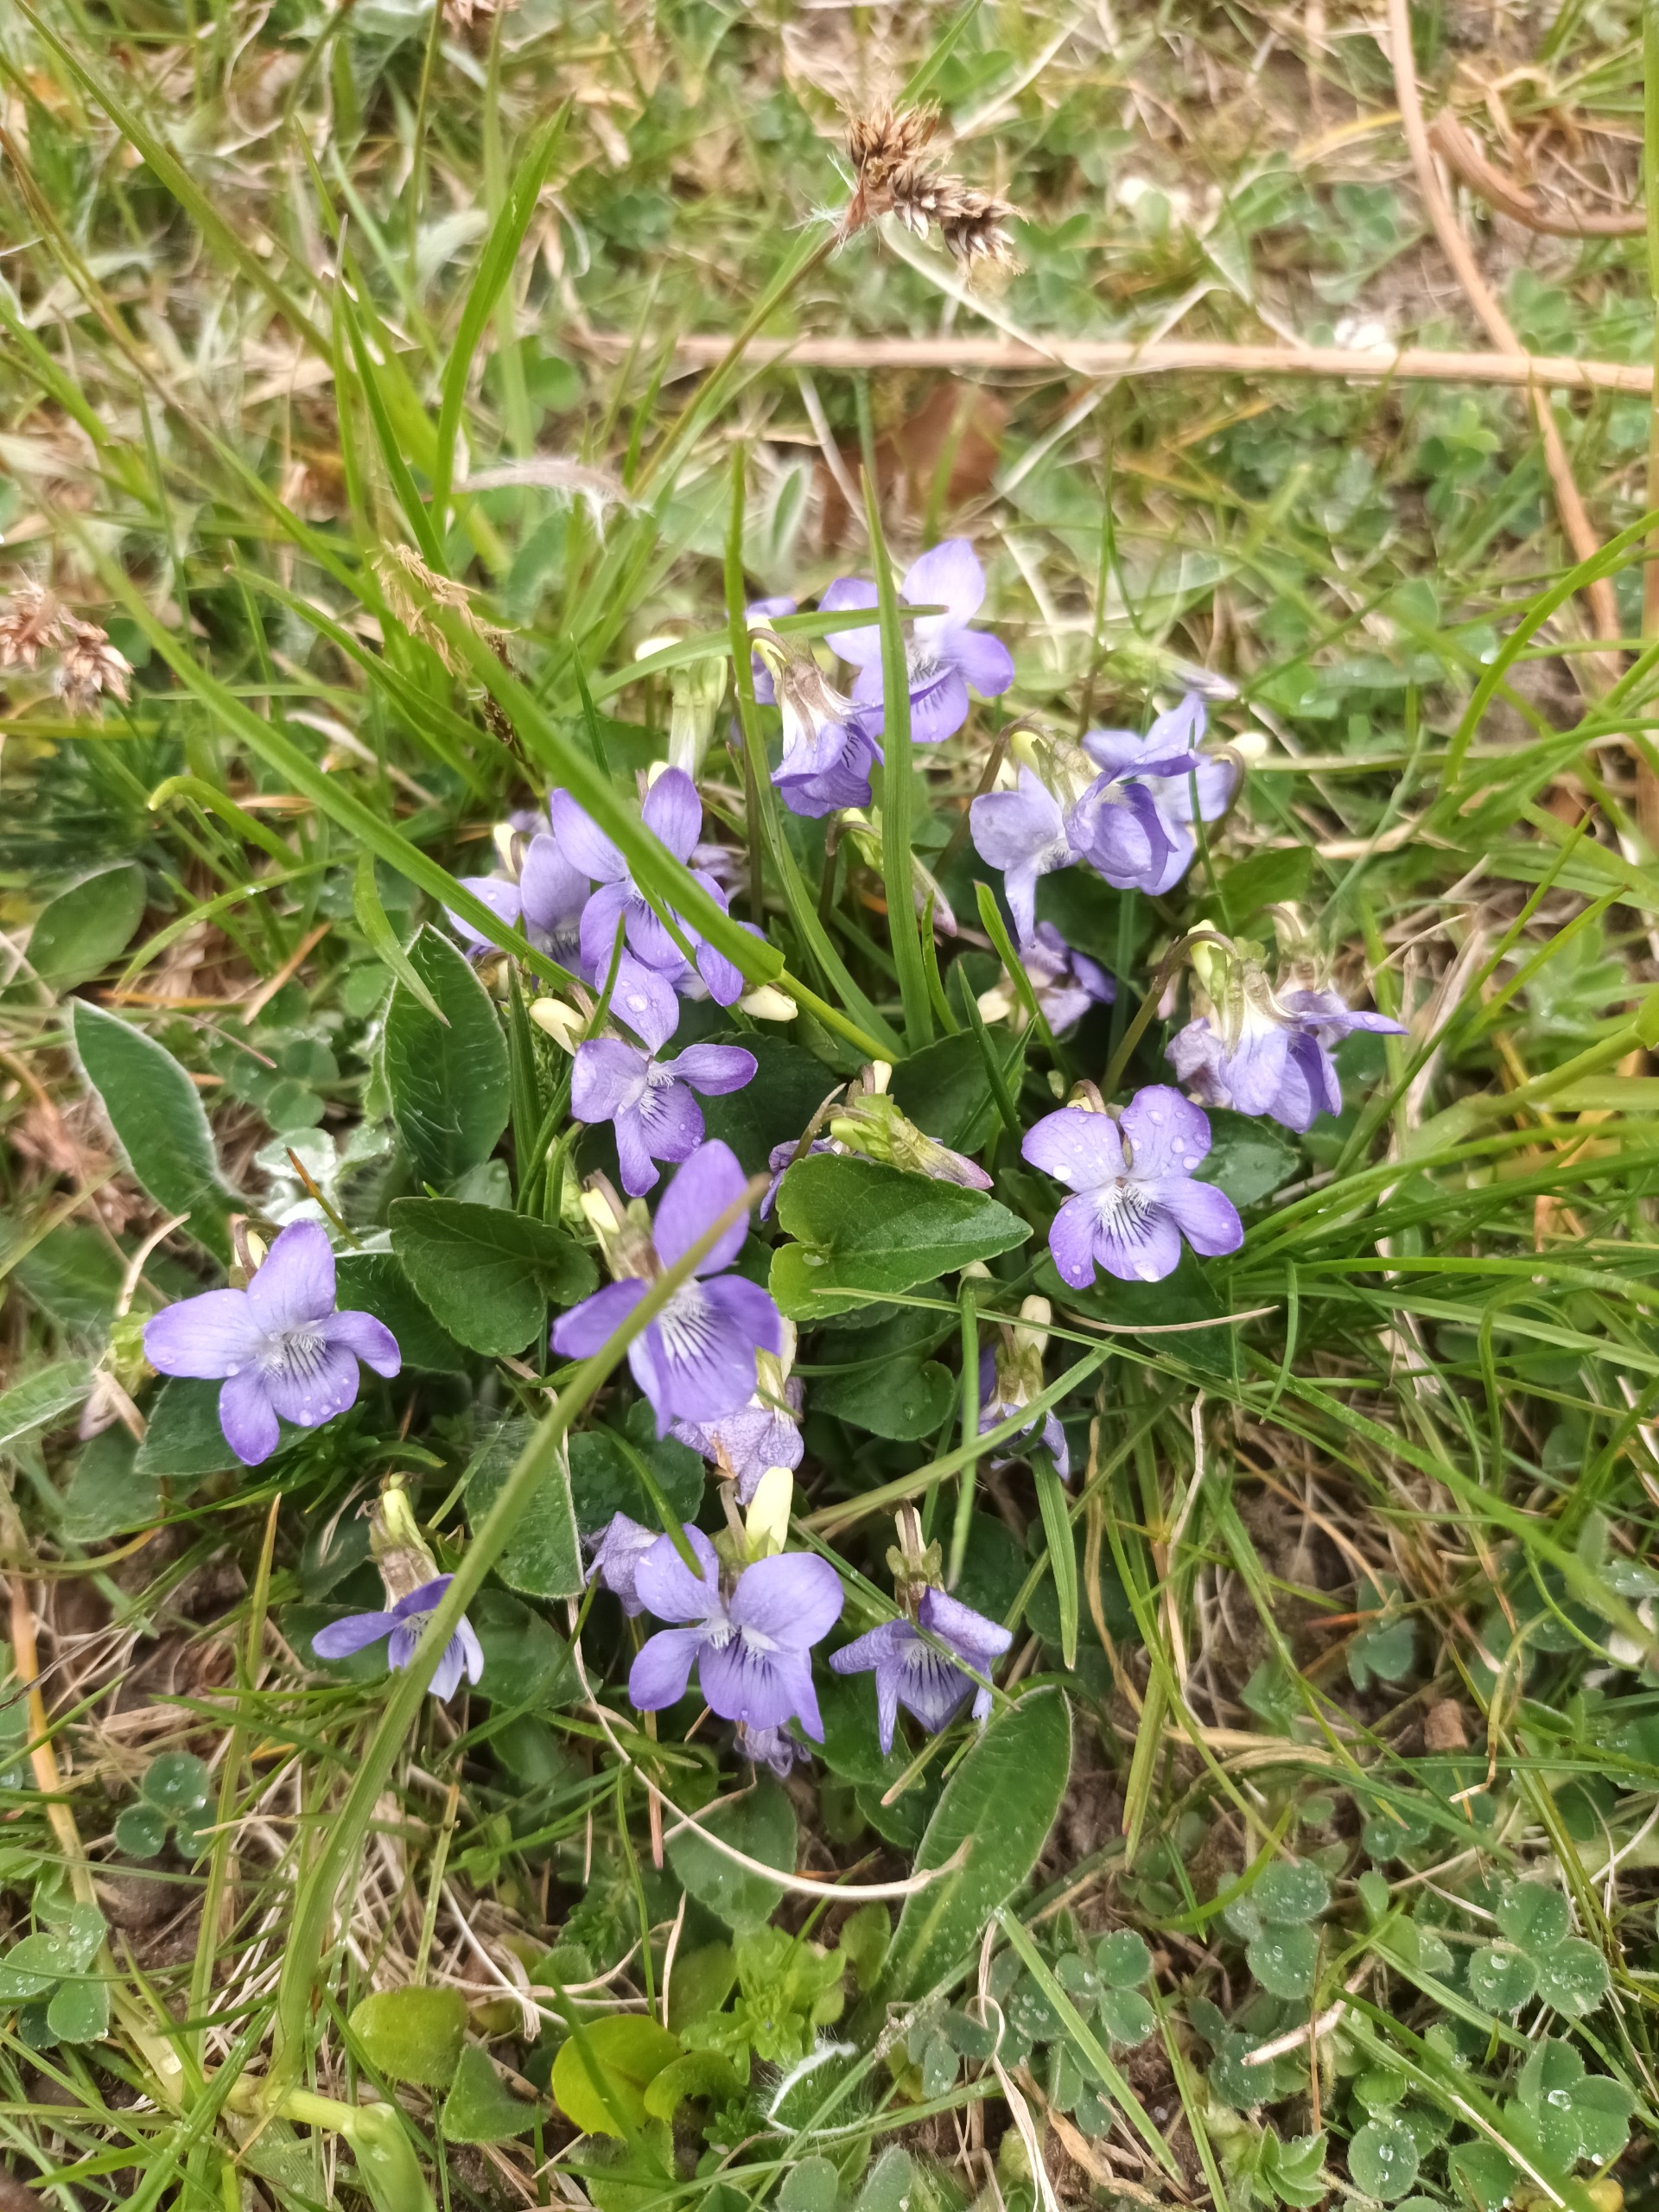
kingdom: Plantae
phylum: Tracheophyta
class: Magnoliopsida
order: Malpighiales
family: Violaceae
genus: Viola
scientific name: Viola canina
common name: Hunde-viol
